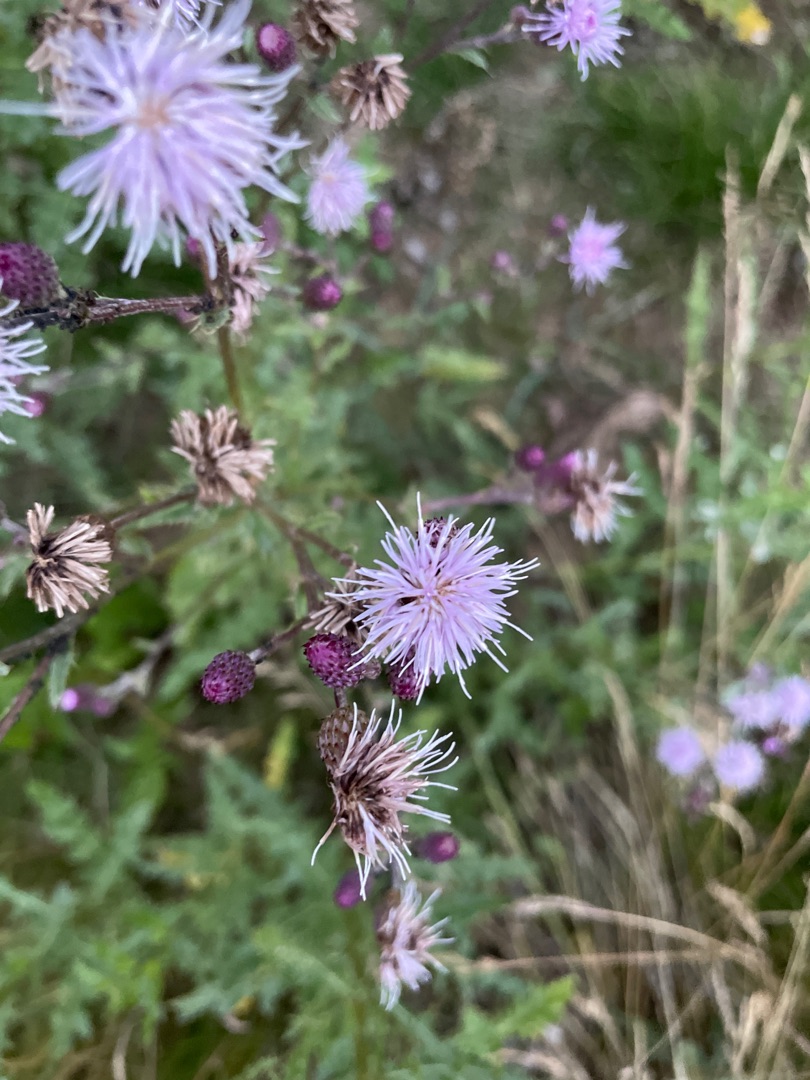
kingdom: Plantae
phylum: Tracheophyta
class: Magnoliopsida
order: Asterales
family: Asteraceae
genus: Cirsium
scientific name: Cirsium arvense
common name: Ager-tidsel
